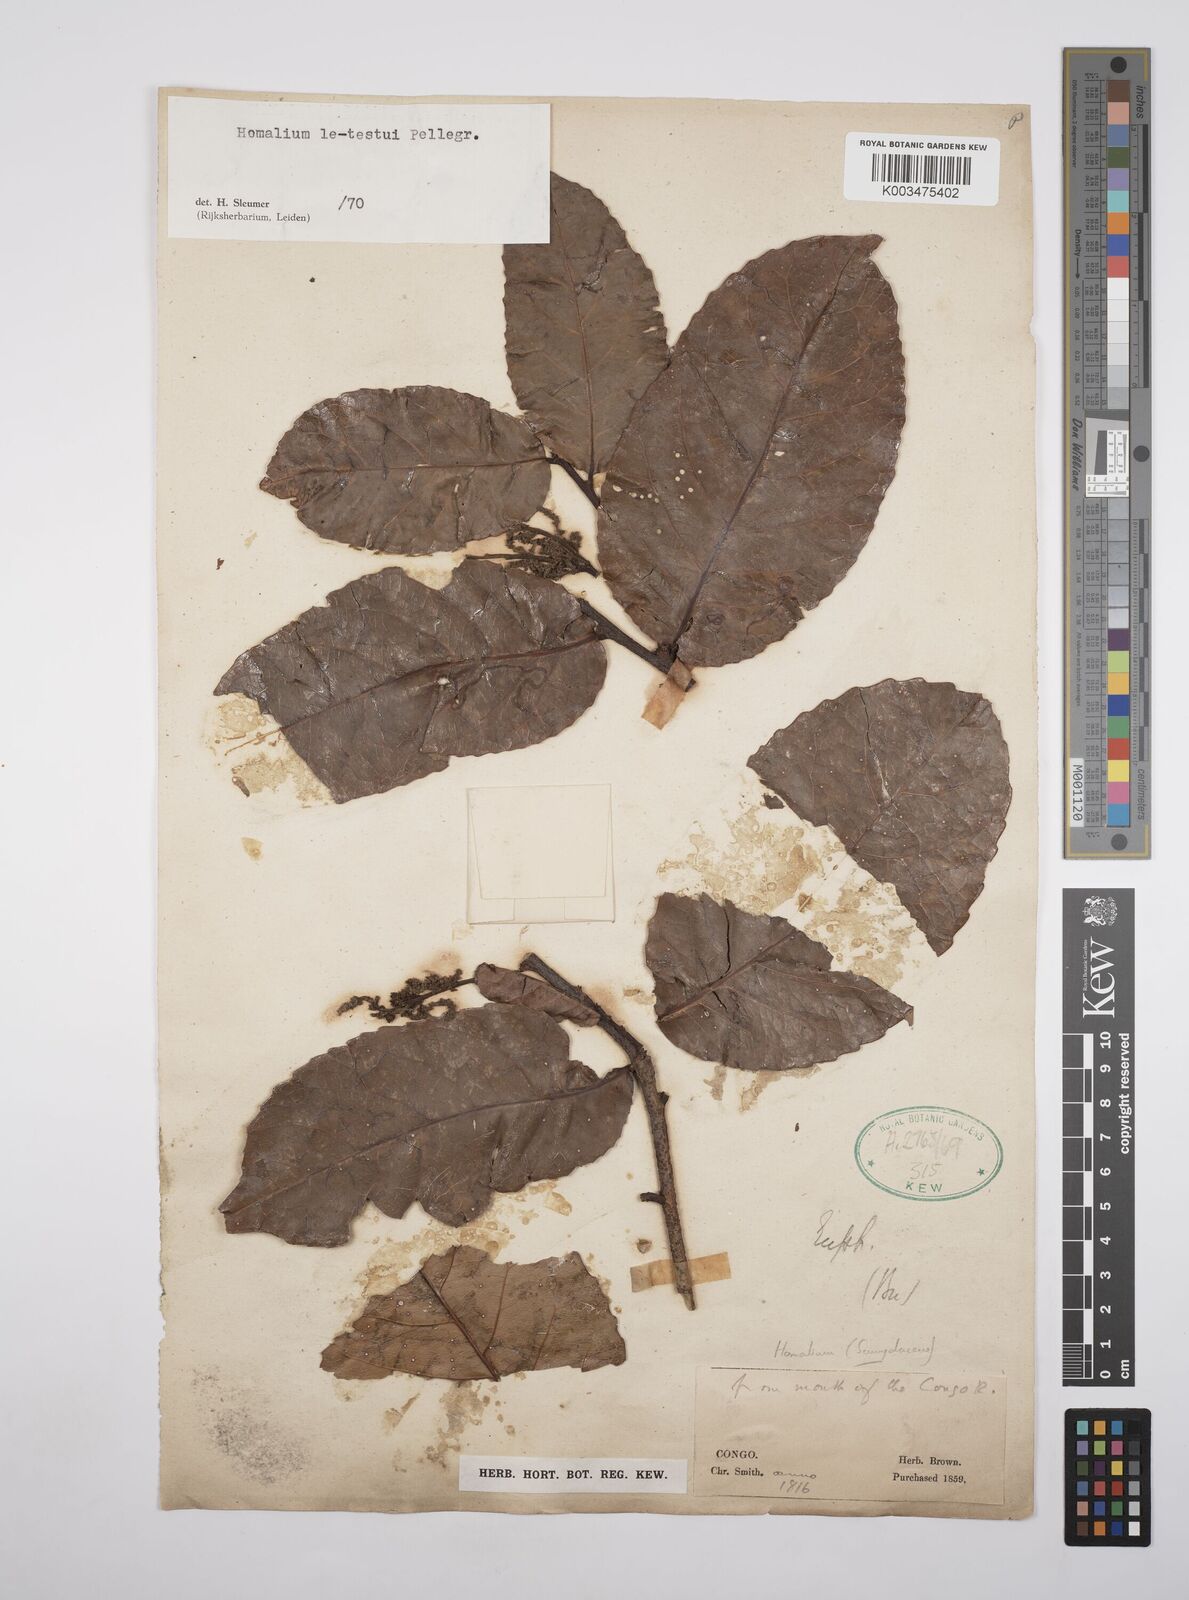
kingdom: Plantae
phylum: Tracheophyta
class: Magnoliopsida
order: Malpighiales
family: Salicaceae
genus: Homalium
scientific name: Homalium letestui
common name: African homalium
